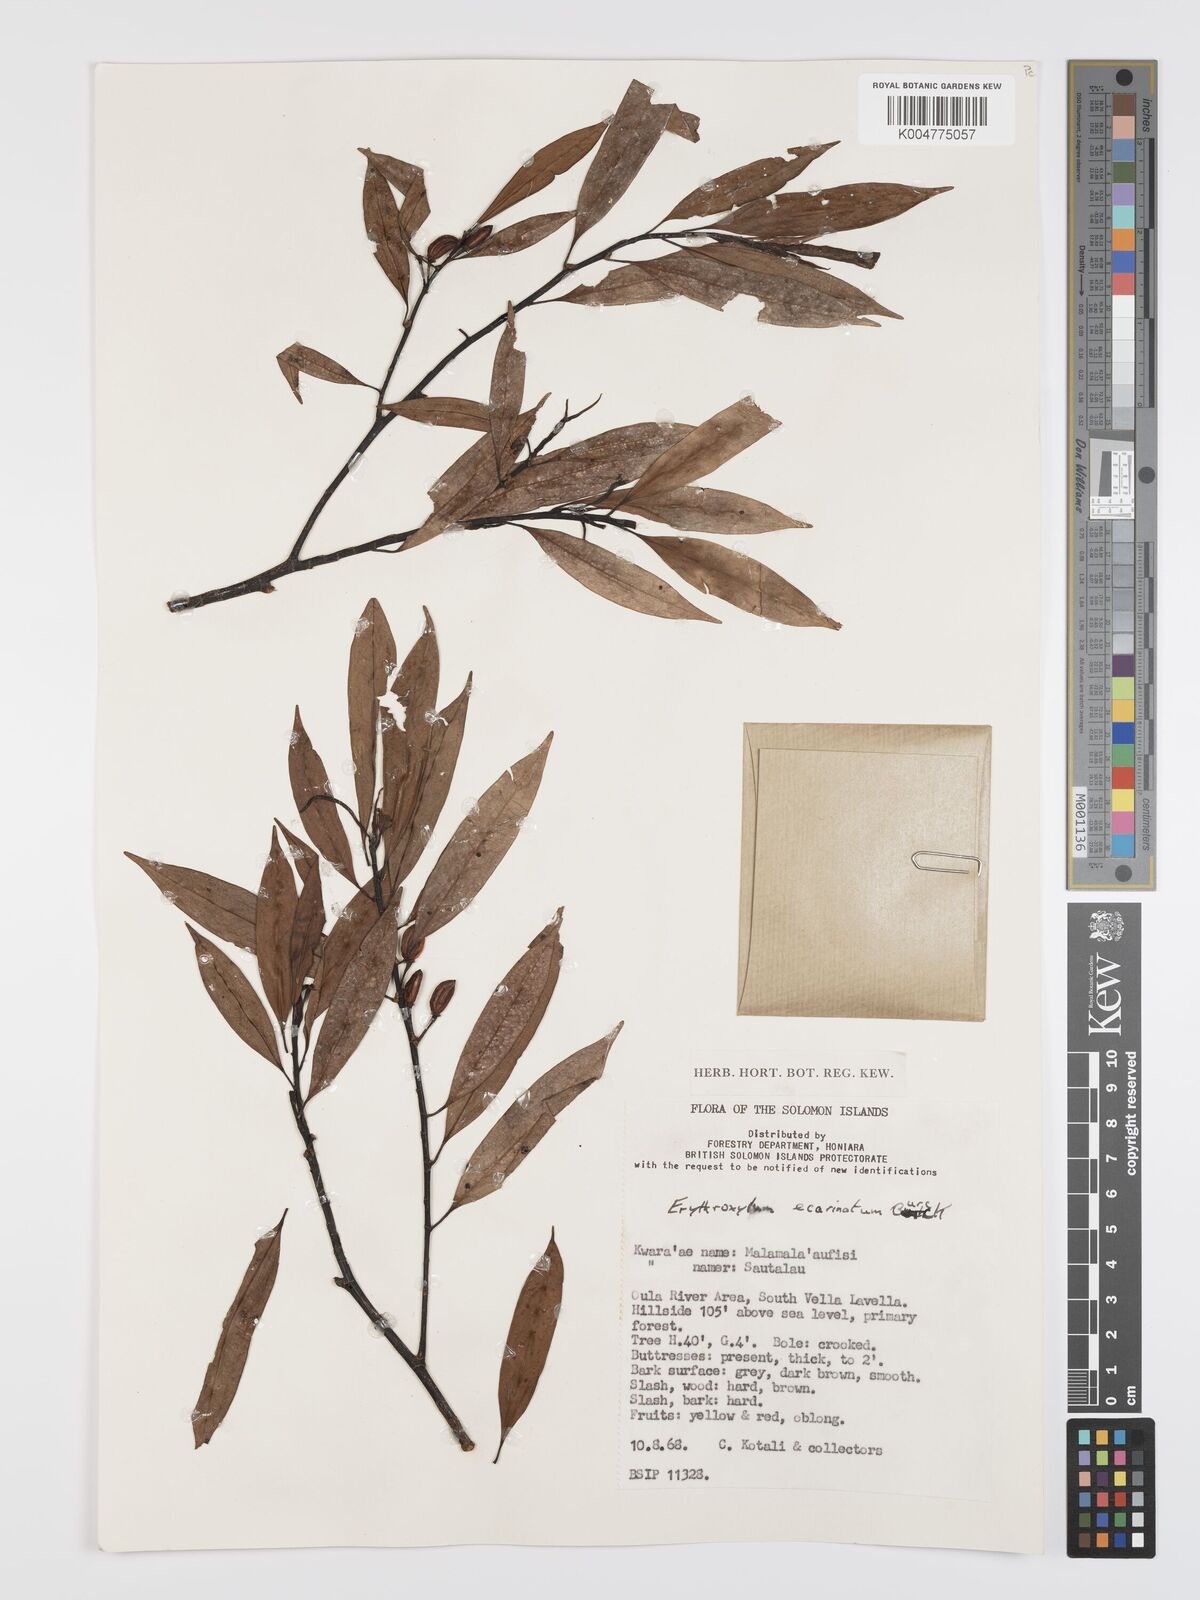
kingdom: Plantae
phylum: Tracheophyta
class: Magnoliopsida
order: Malpighiales
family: Erythroxylaceae
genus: Erythroxylum
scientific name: Erythroxylum ecarinatum
